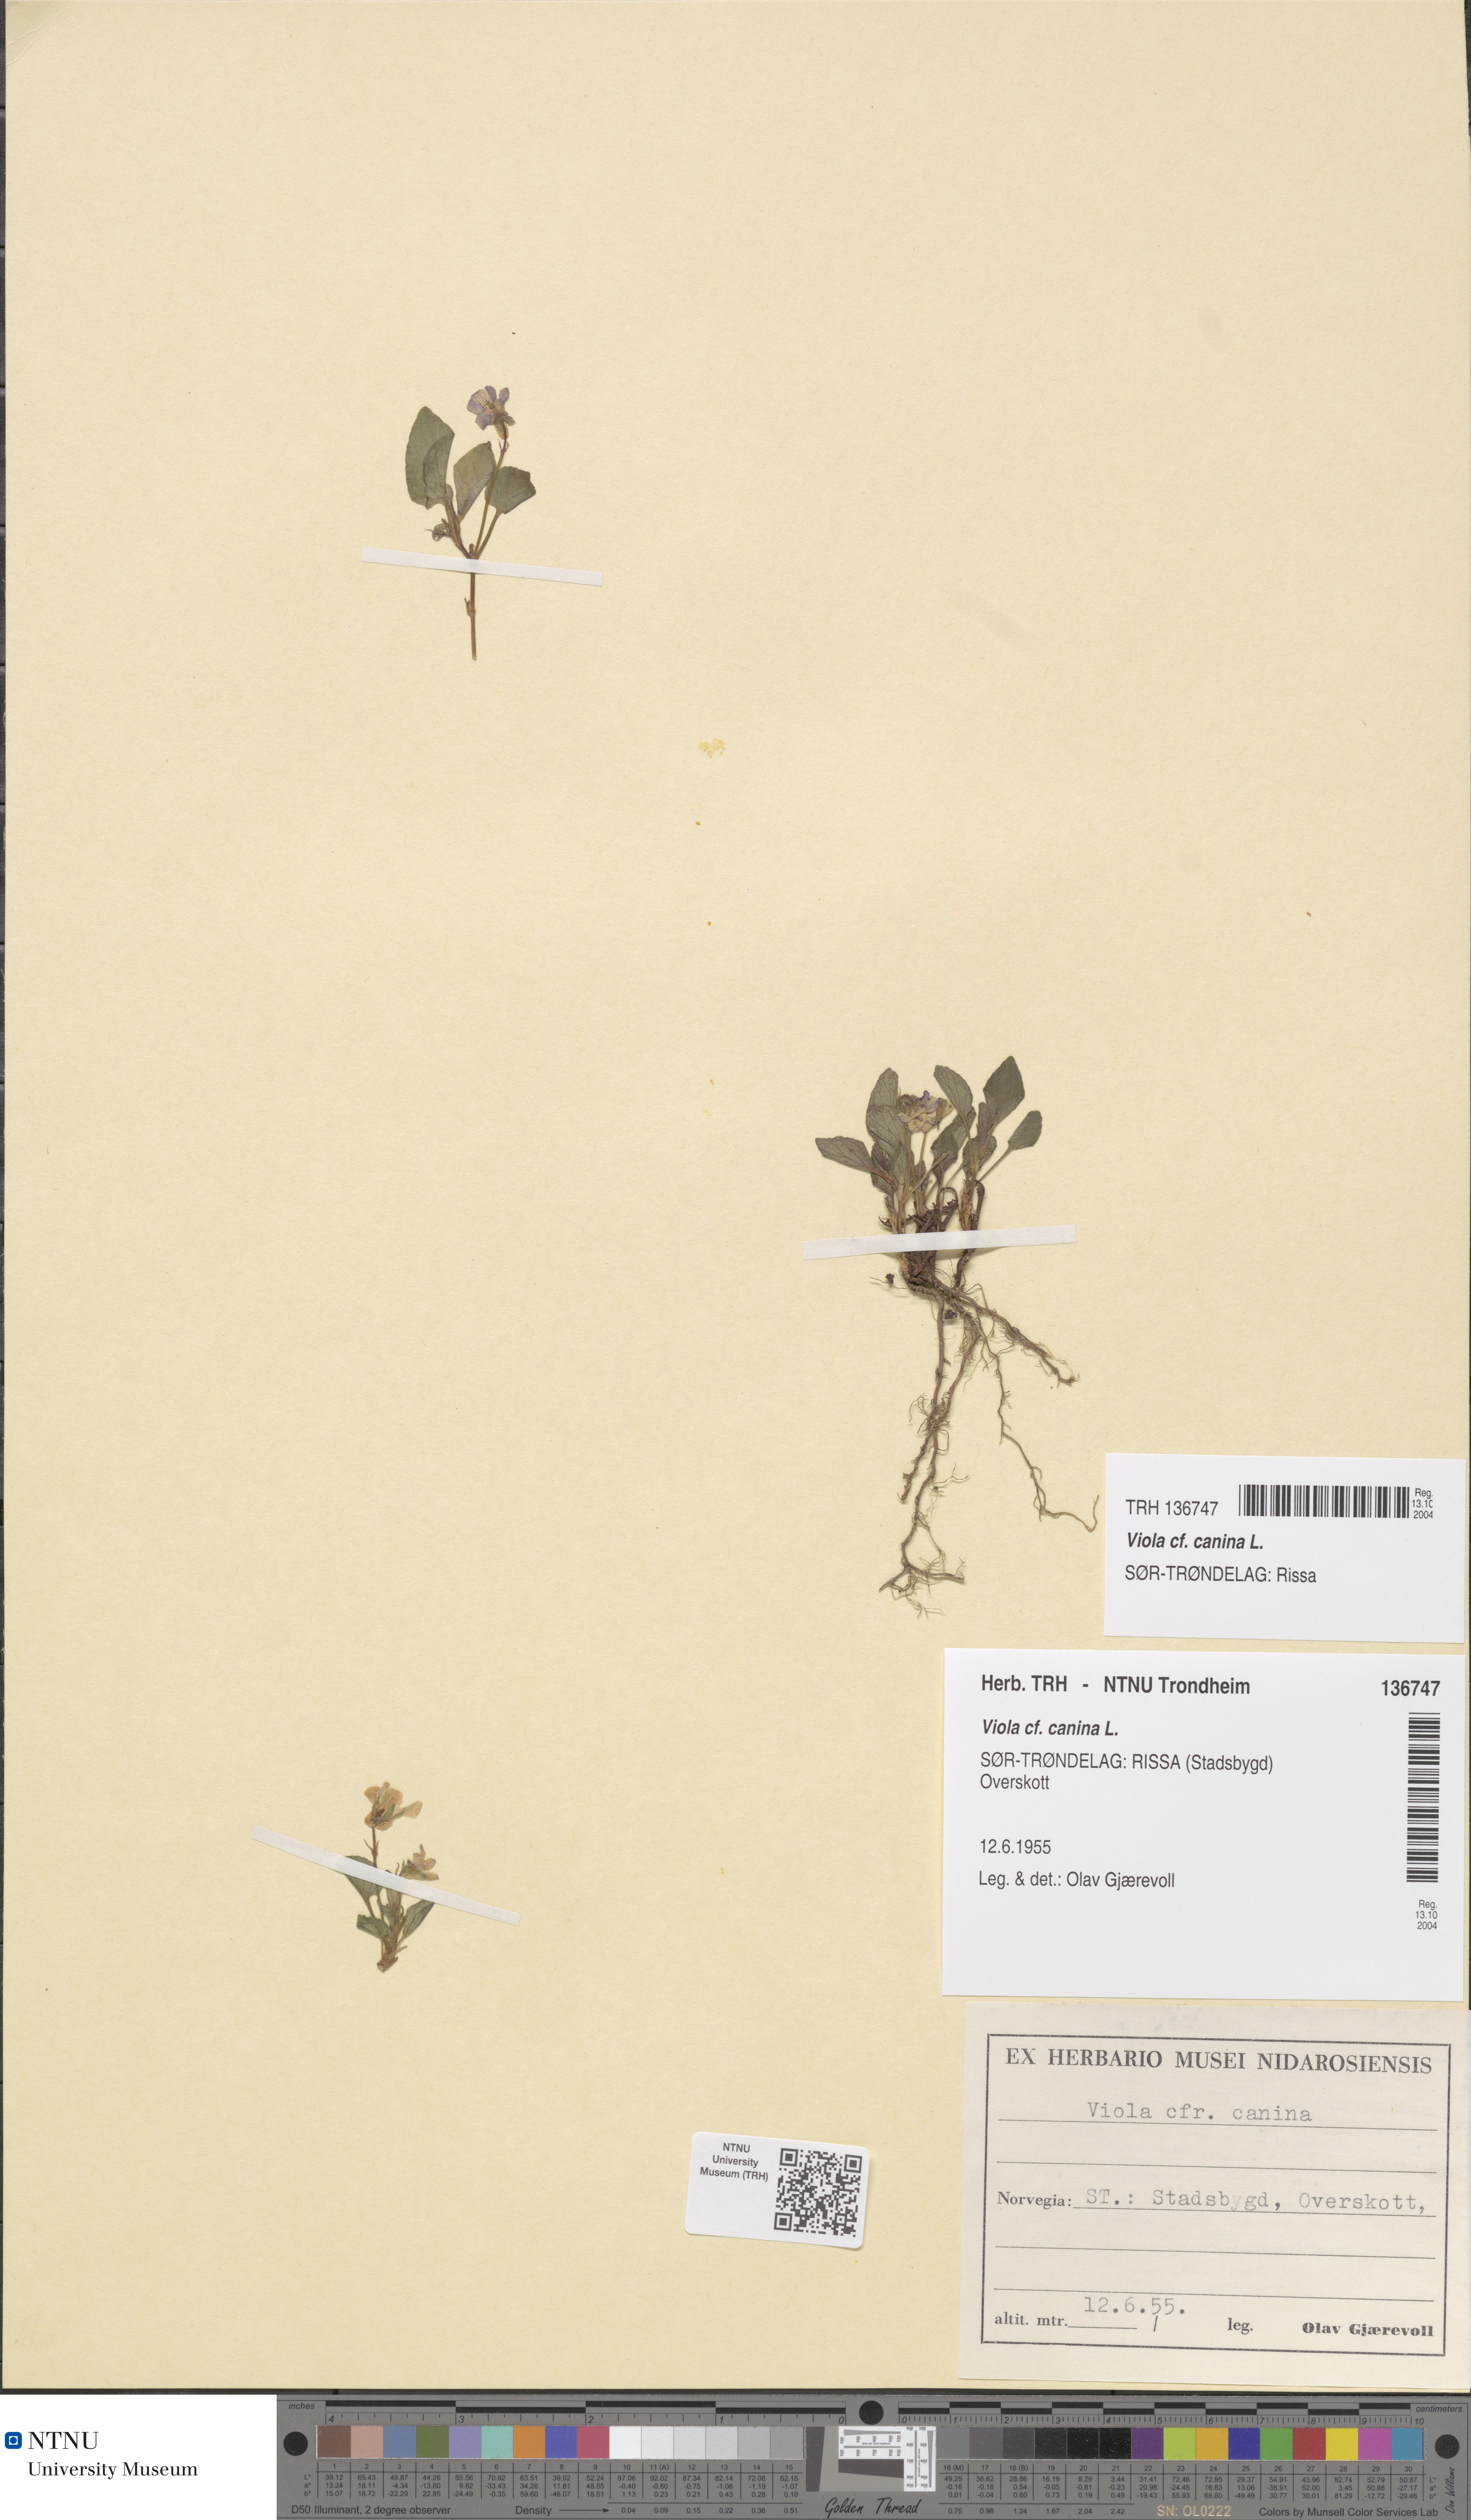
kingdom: Plantae
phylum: Tracheophyta
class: Magnoliopsida
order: Malpighiales
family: Violaceae
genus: Viola
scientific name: Viola canina
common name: Heath dog-violet
